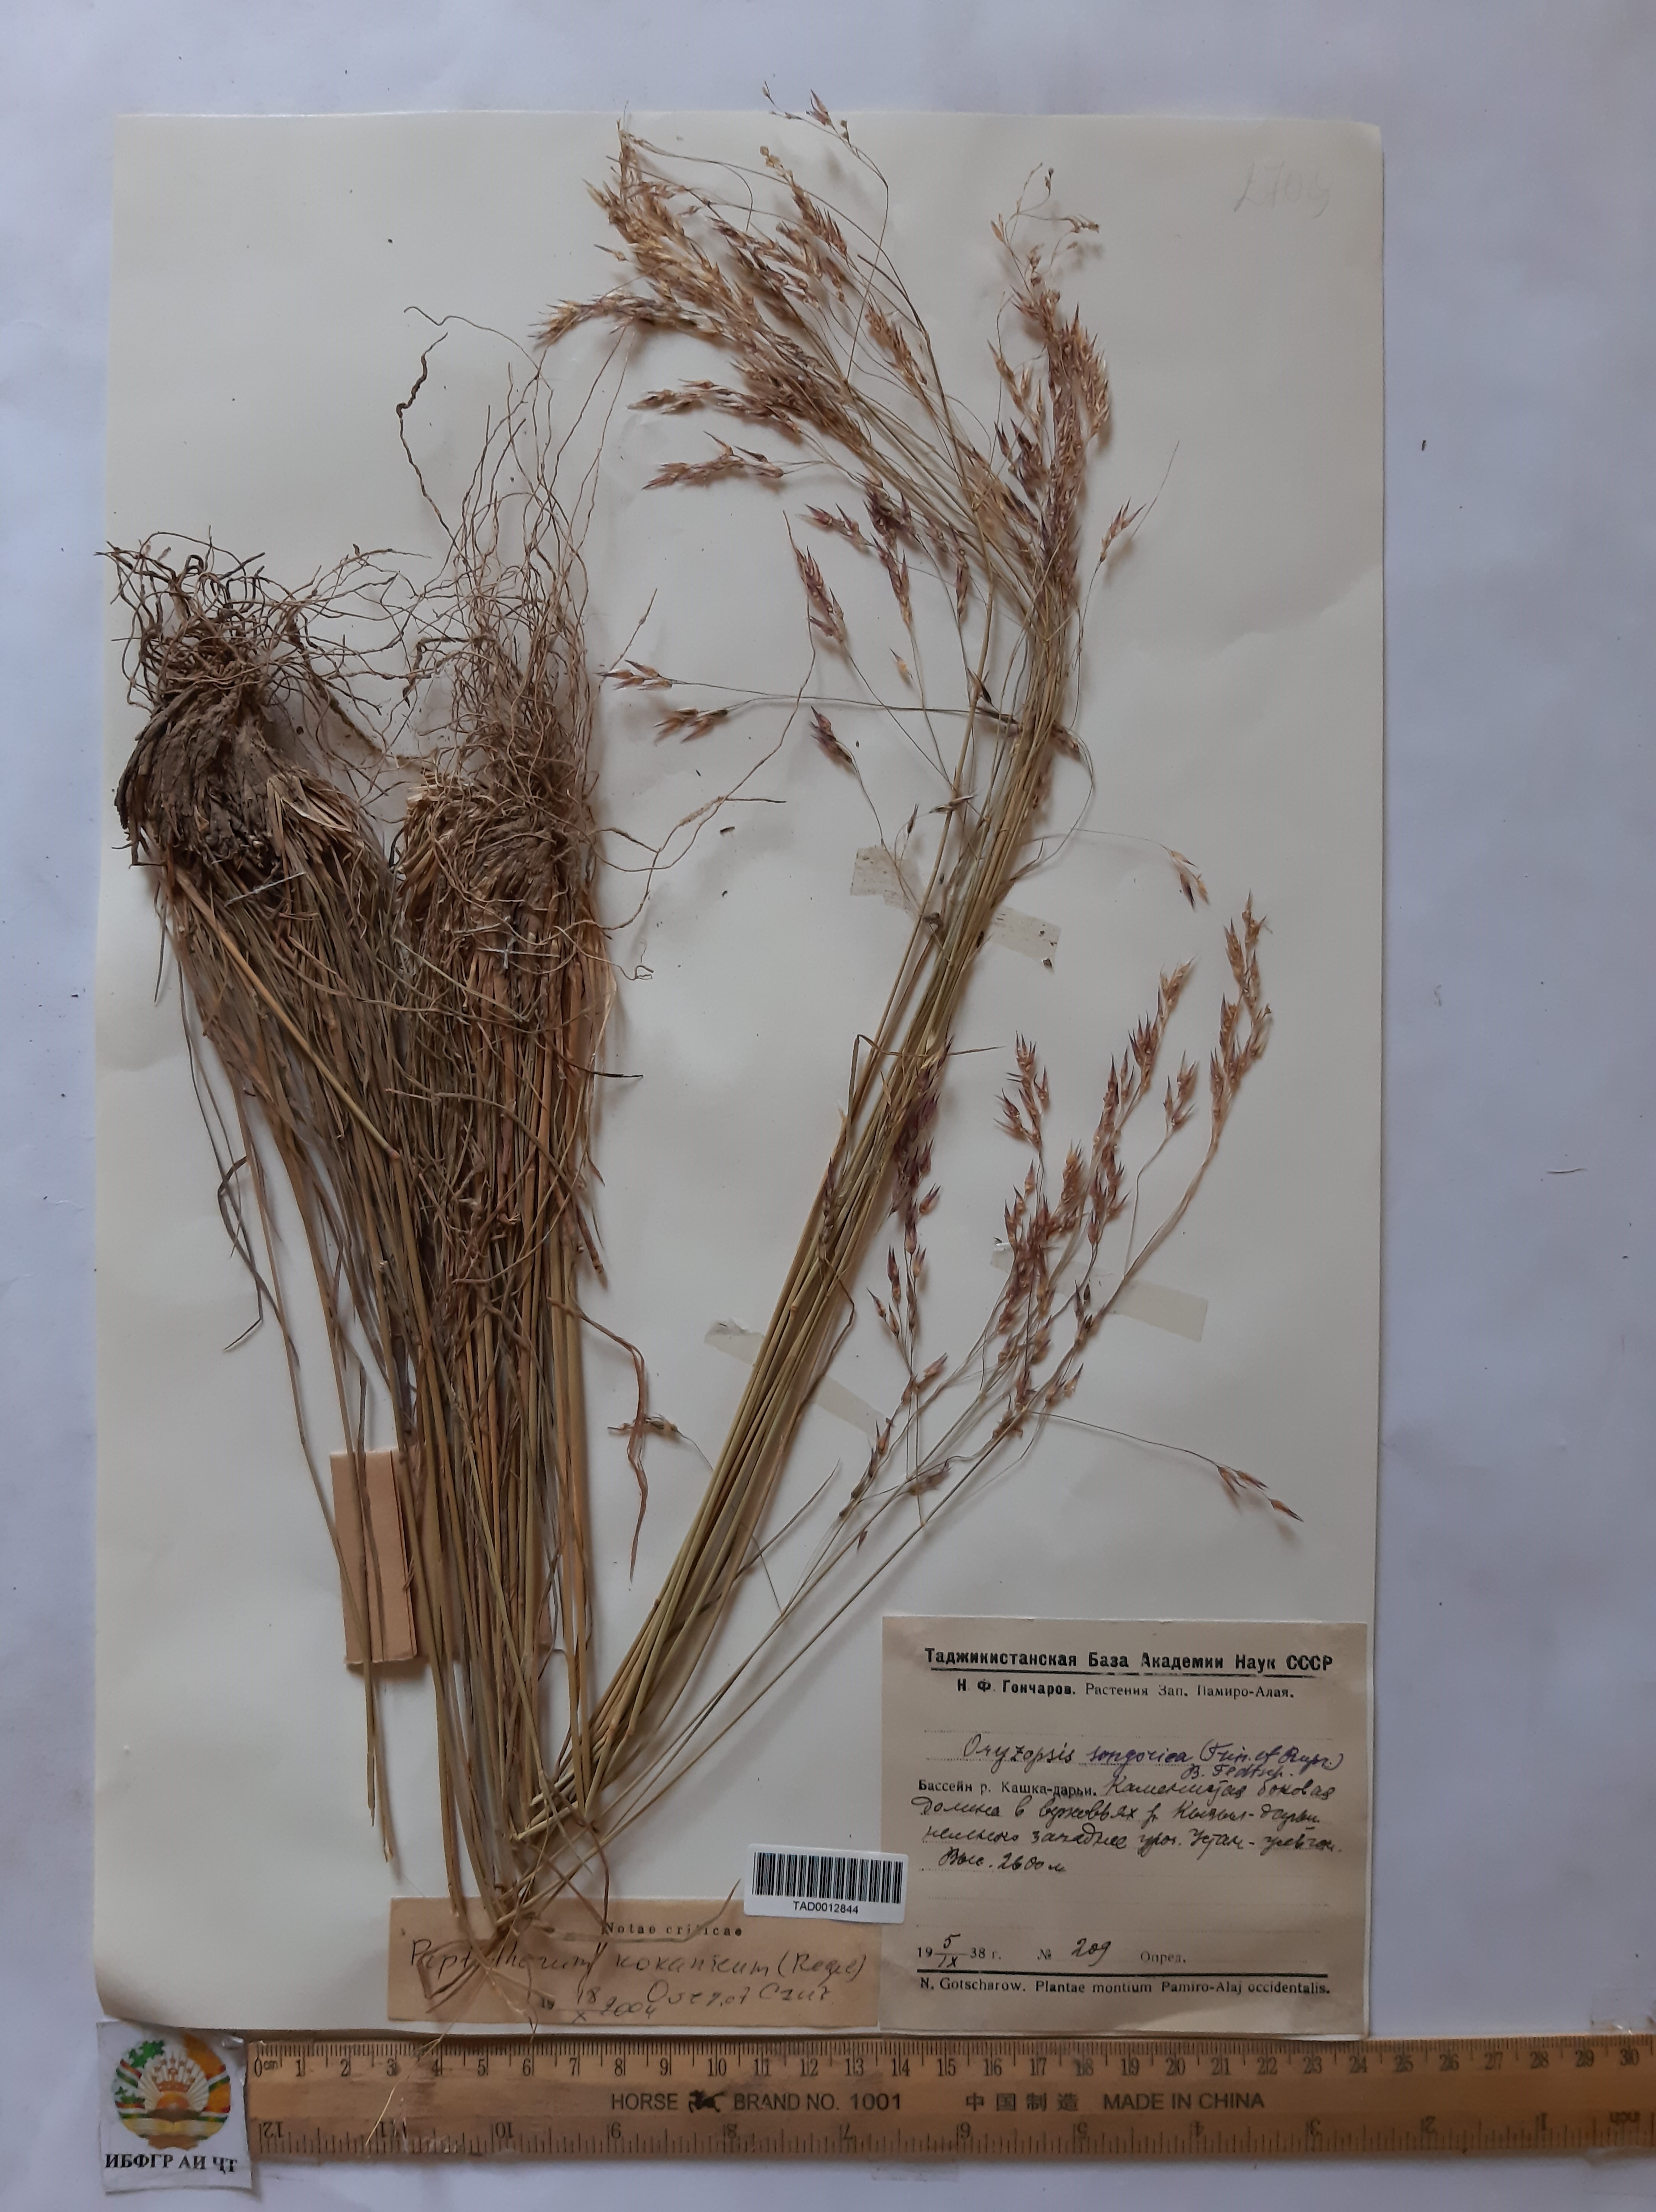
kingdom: Plantae
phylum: Tracheophyta
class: Liliopsida
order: Poales
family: Poaceae
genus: Piptatherum
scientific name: Piptatherum songaricum
